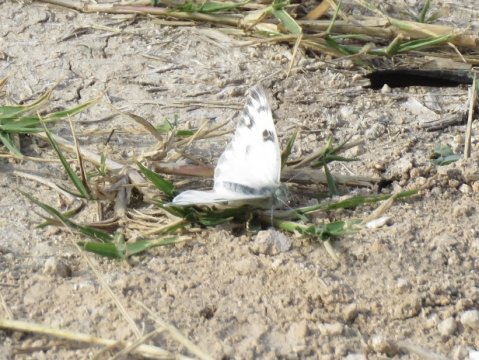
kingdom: Animalia
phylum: Arthropoda
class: Insecta
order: Lepidoptera
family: Pieridae
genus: Pontia
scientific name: Pontia protodice
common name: Checkered White
